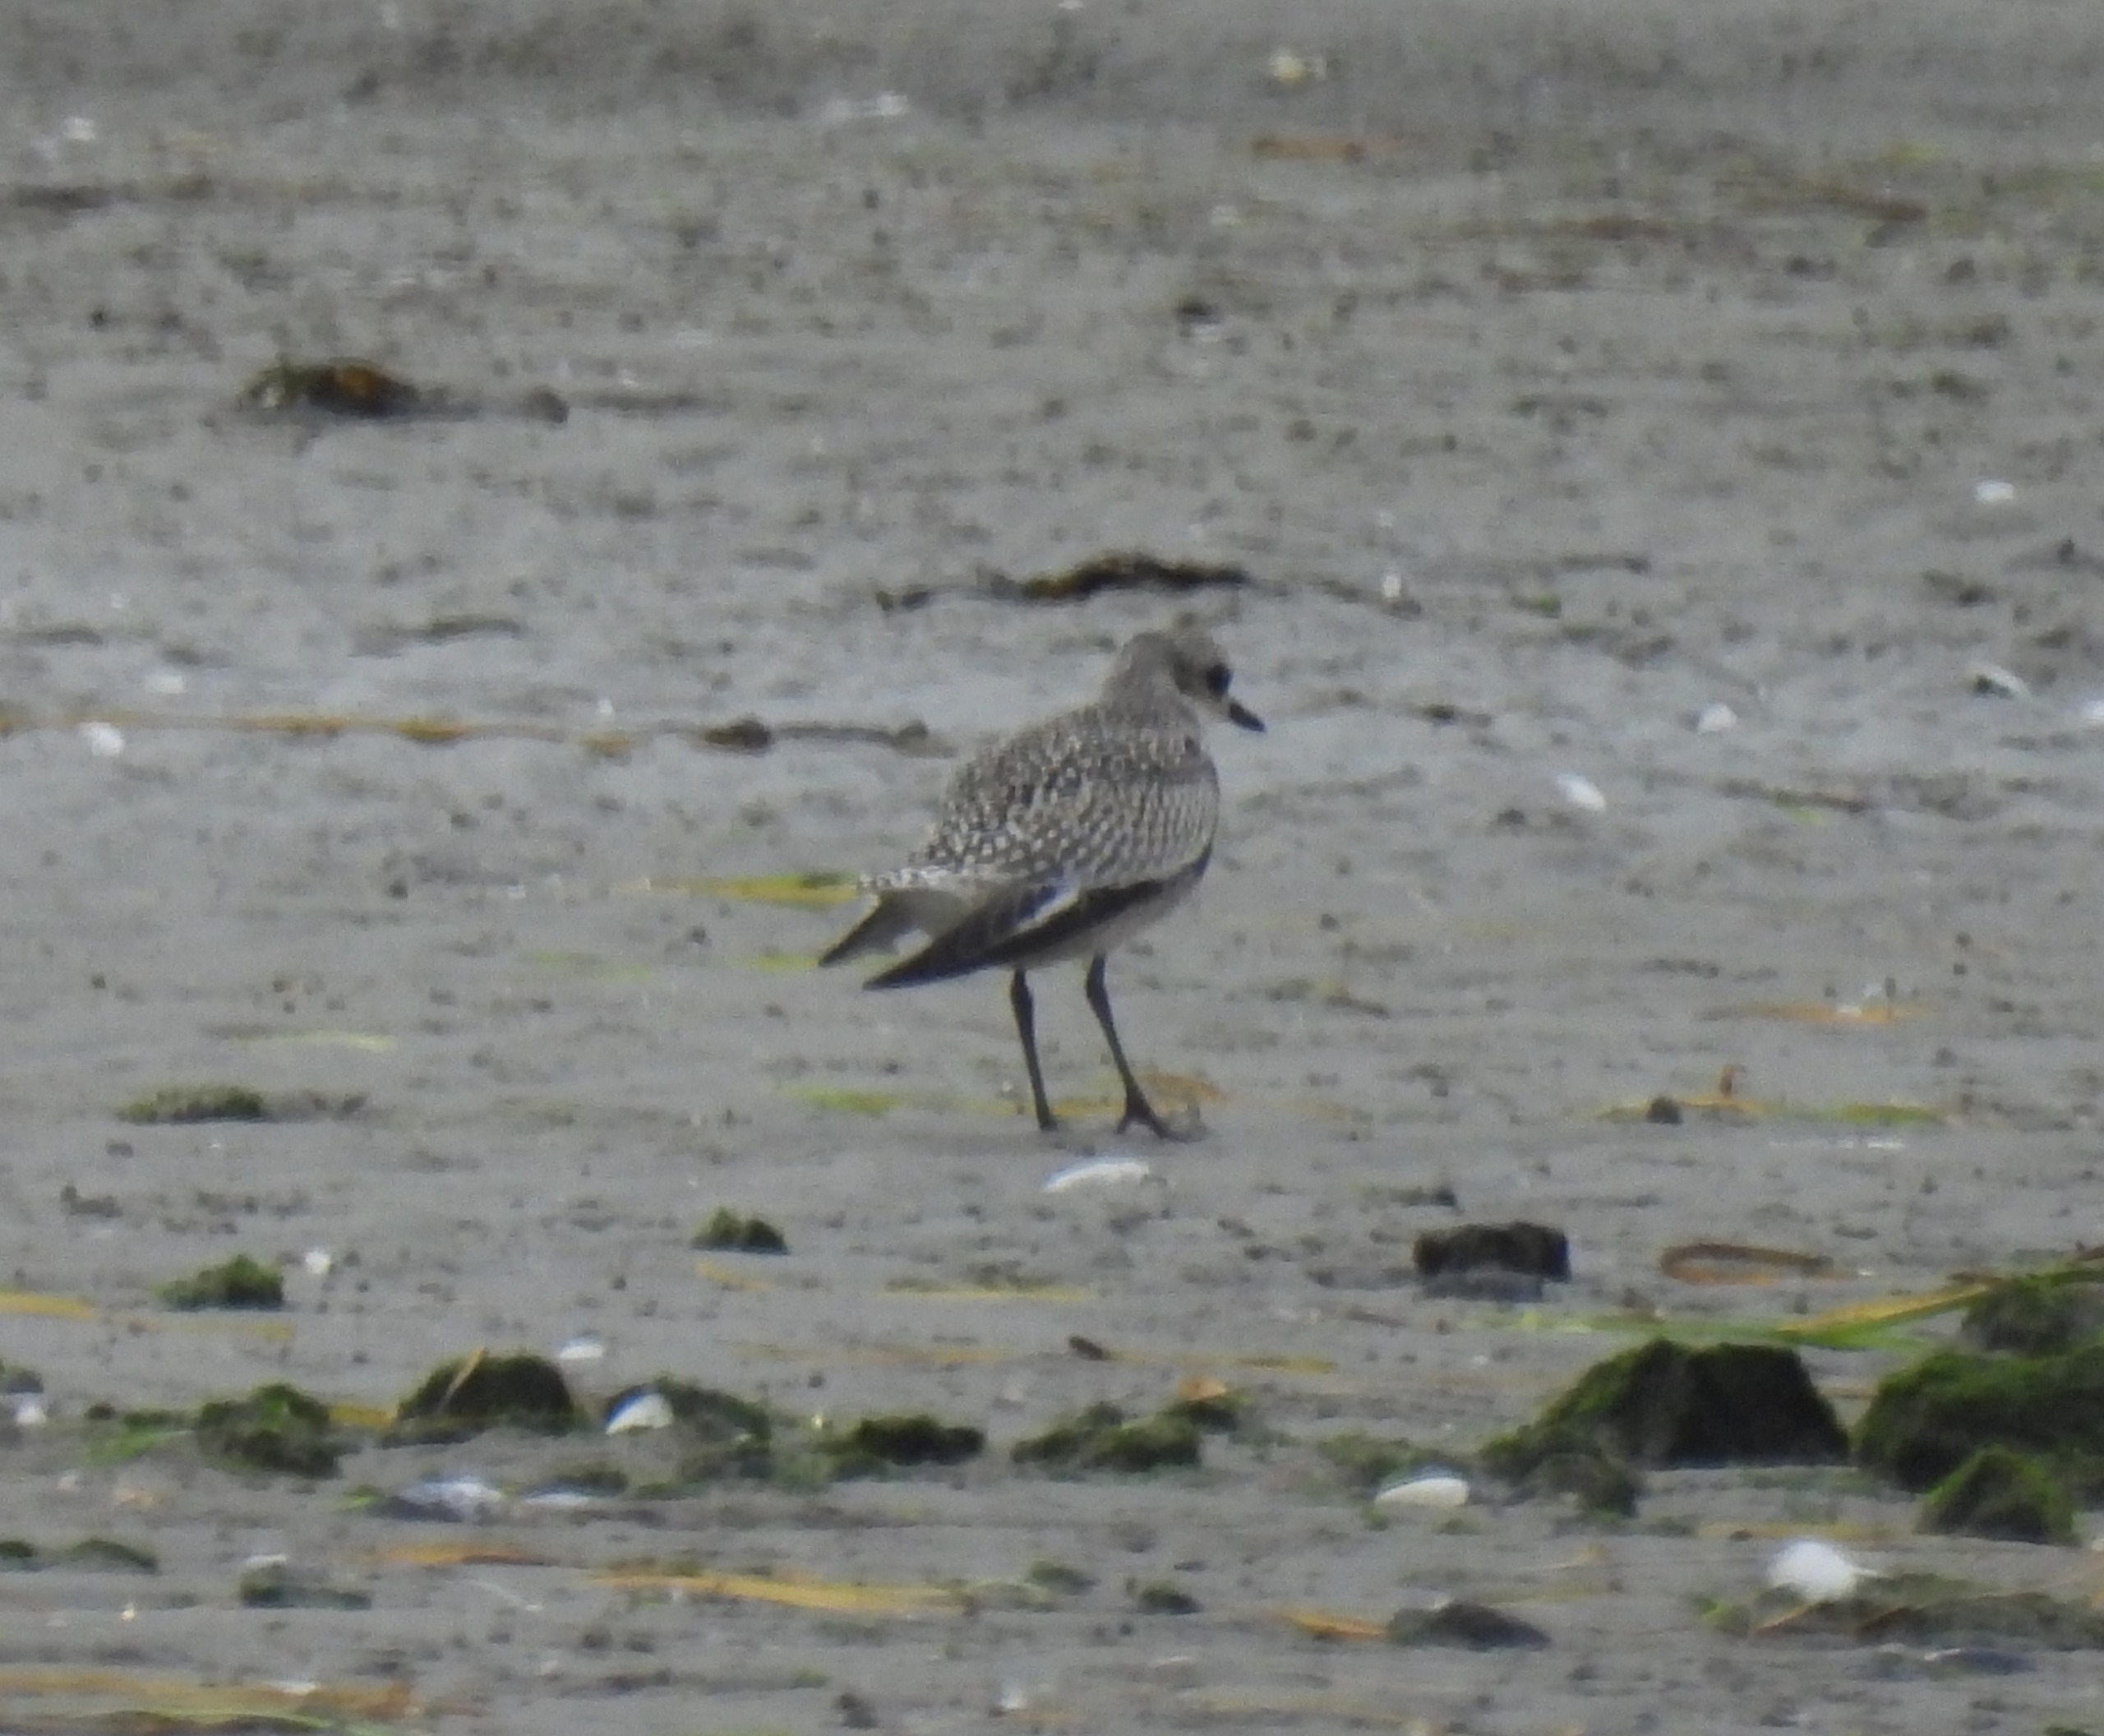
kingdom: Animalia
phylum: Chordata
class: Aves
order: Charadriiformes
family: Charadriidae
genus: Pluvialis
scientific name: Pluvialis squatarola
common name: Strandhjejle
